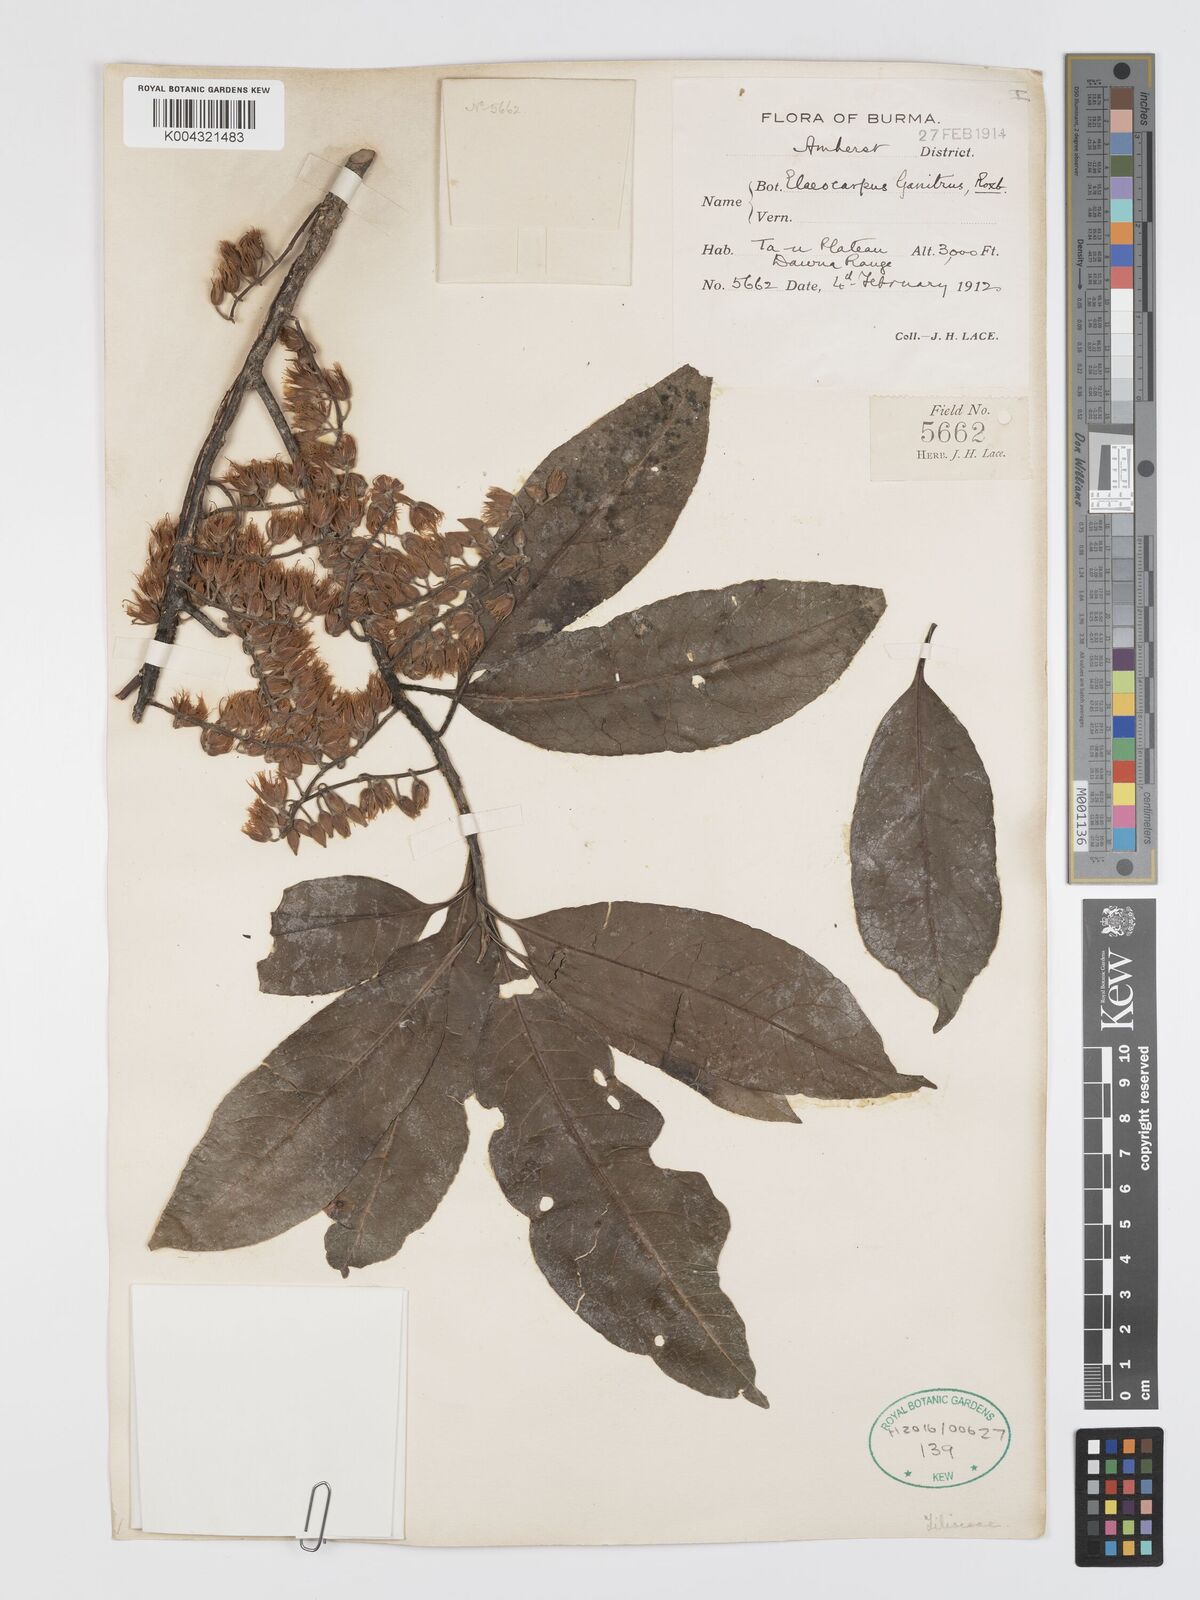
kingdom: Plantae
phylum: Tracheophyta
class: Magnoliopsida
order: Oxalidales
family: Elaeocarpaceae
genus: Elaeocarpus
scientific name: Elaeocarpus sphaericus
